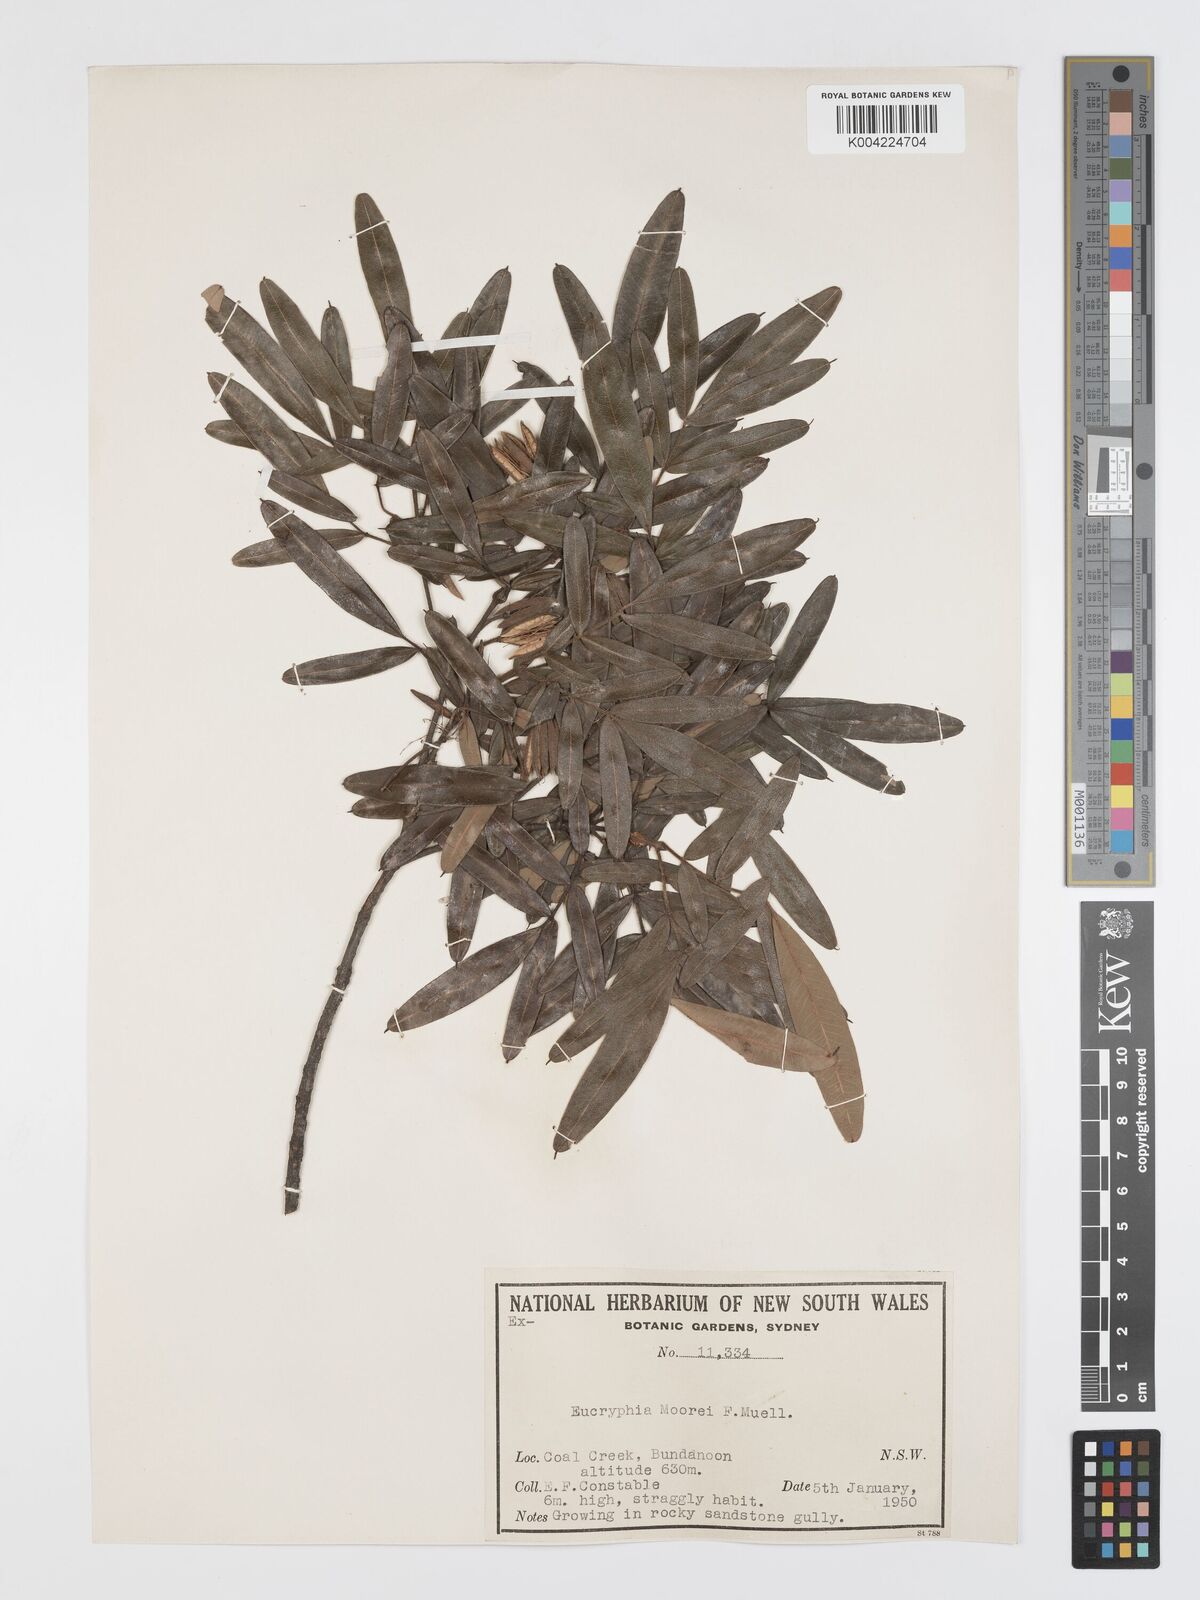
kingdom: Plantae
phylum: Tracheophyta
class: Magnoliopsida
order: Oxalidales
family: Cunoniaceae
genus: Eucryphia
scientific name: Eucryphia moorei
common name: Acacia-plum
